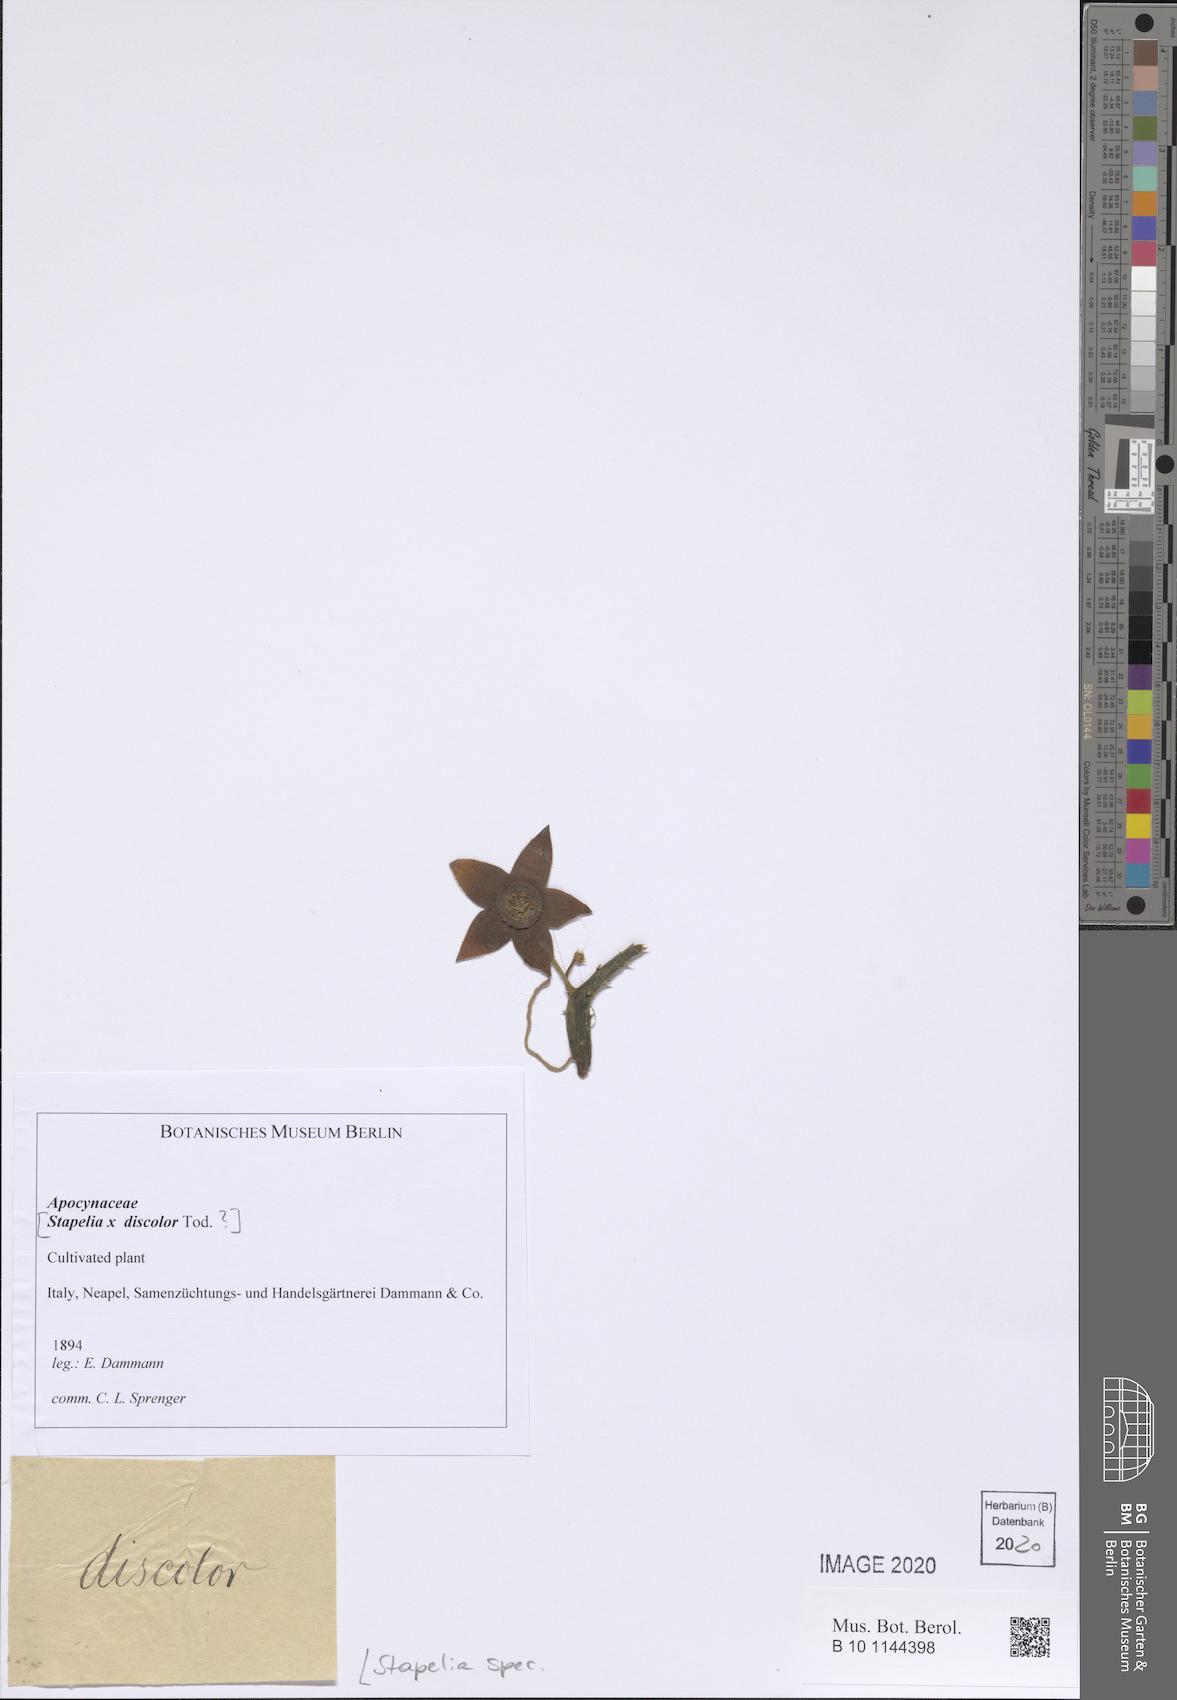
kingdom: Plantae
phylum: Tracheophyta
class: Magnoliopsida
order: Gentianales
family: Apocynaceae
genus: Stapelia
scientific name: Stapelia
